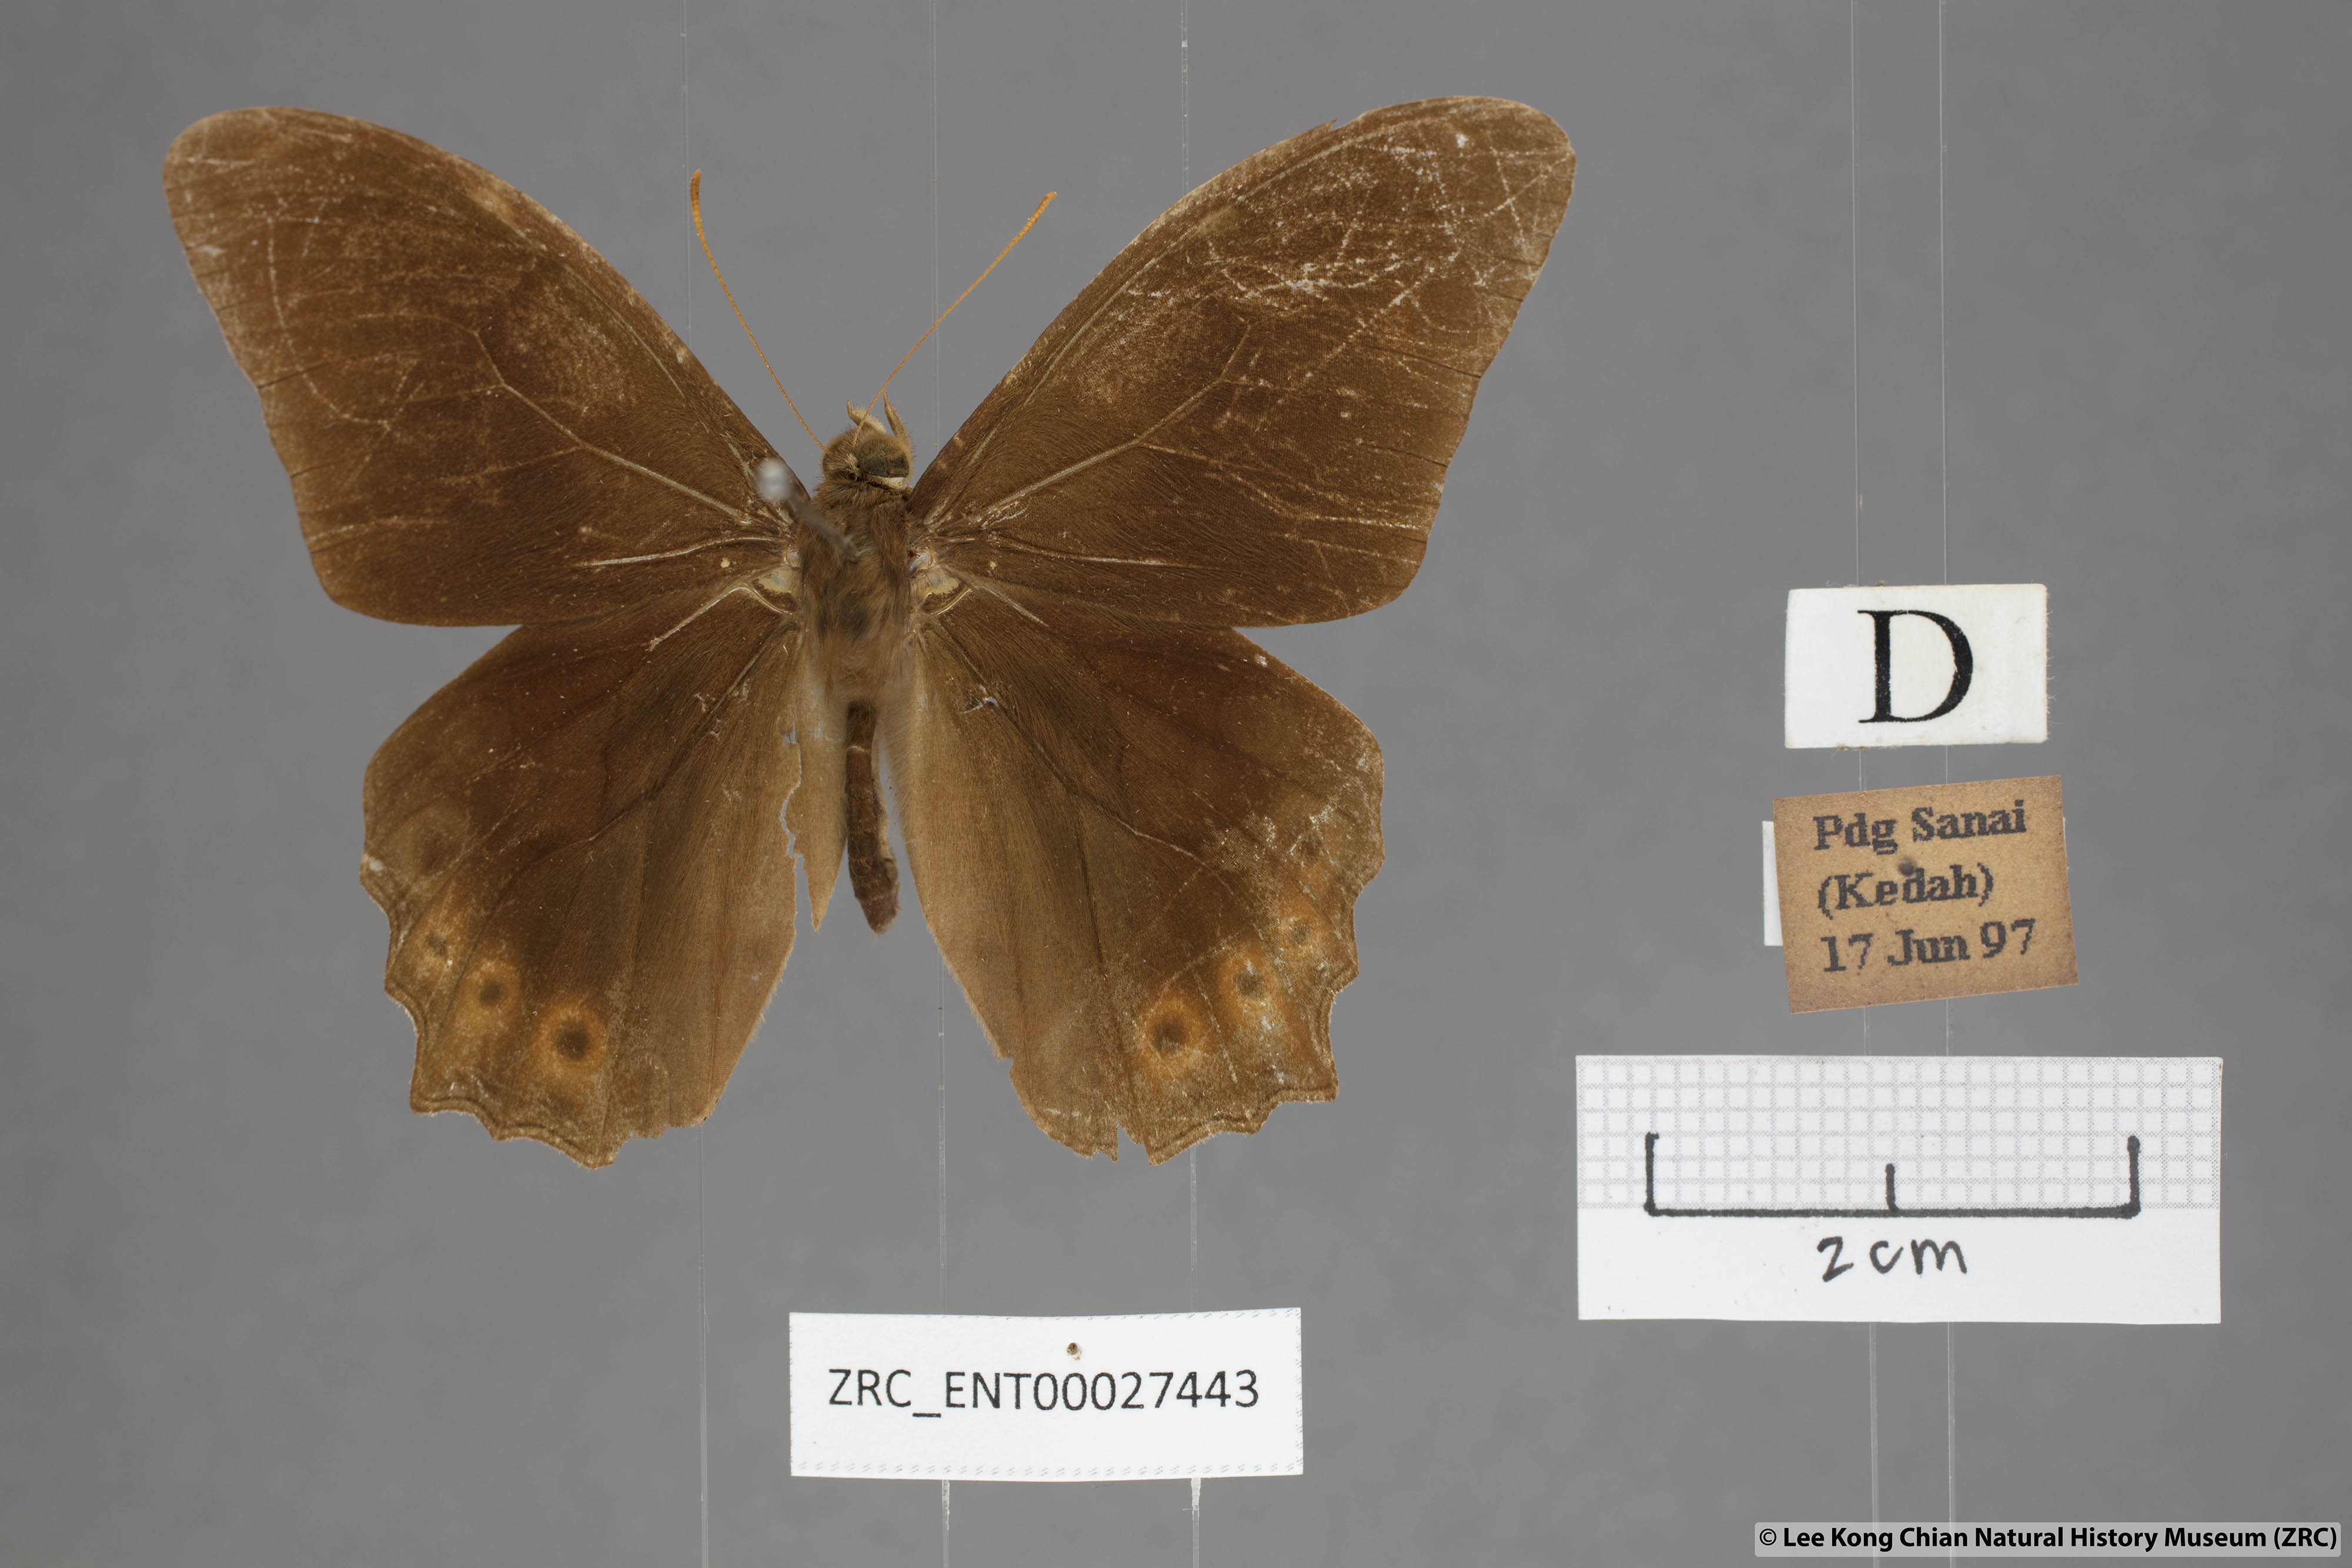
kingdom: Animalia
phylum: Arthropoda
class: Insecta
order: Lepidoptera
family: Nymphalidae
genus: Lethe
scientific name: Lethe mekara
